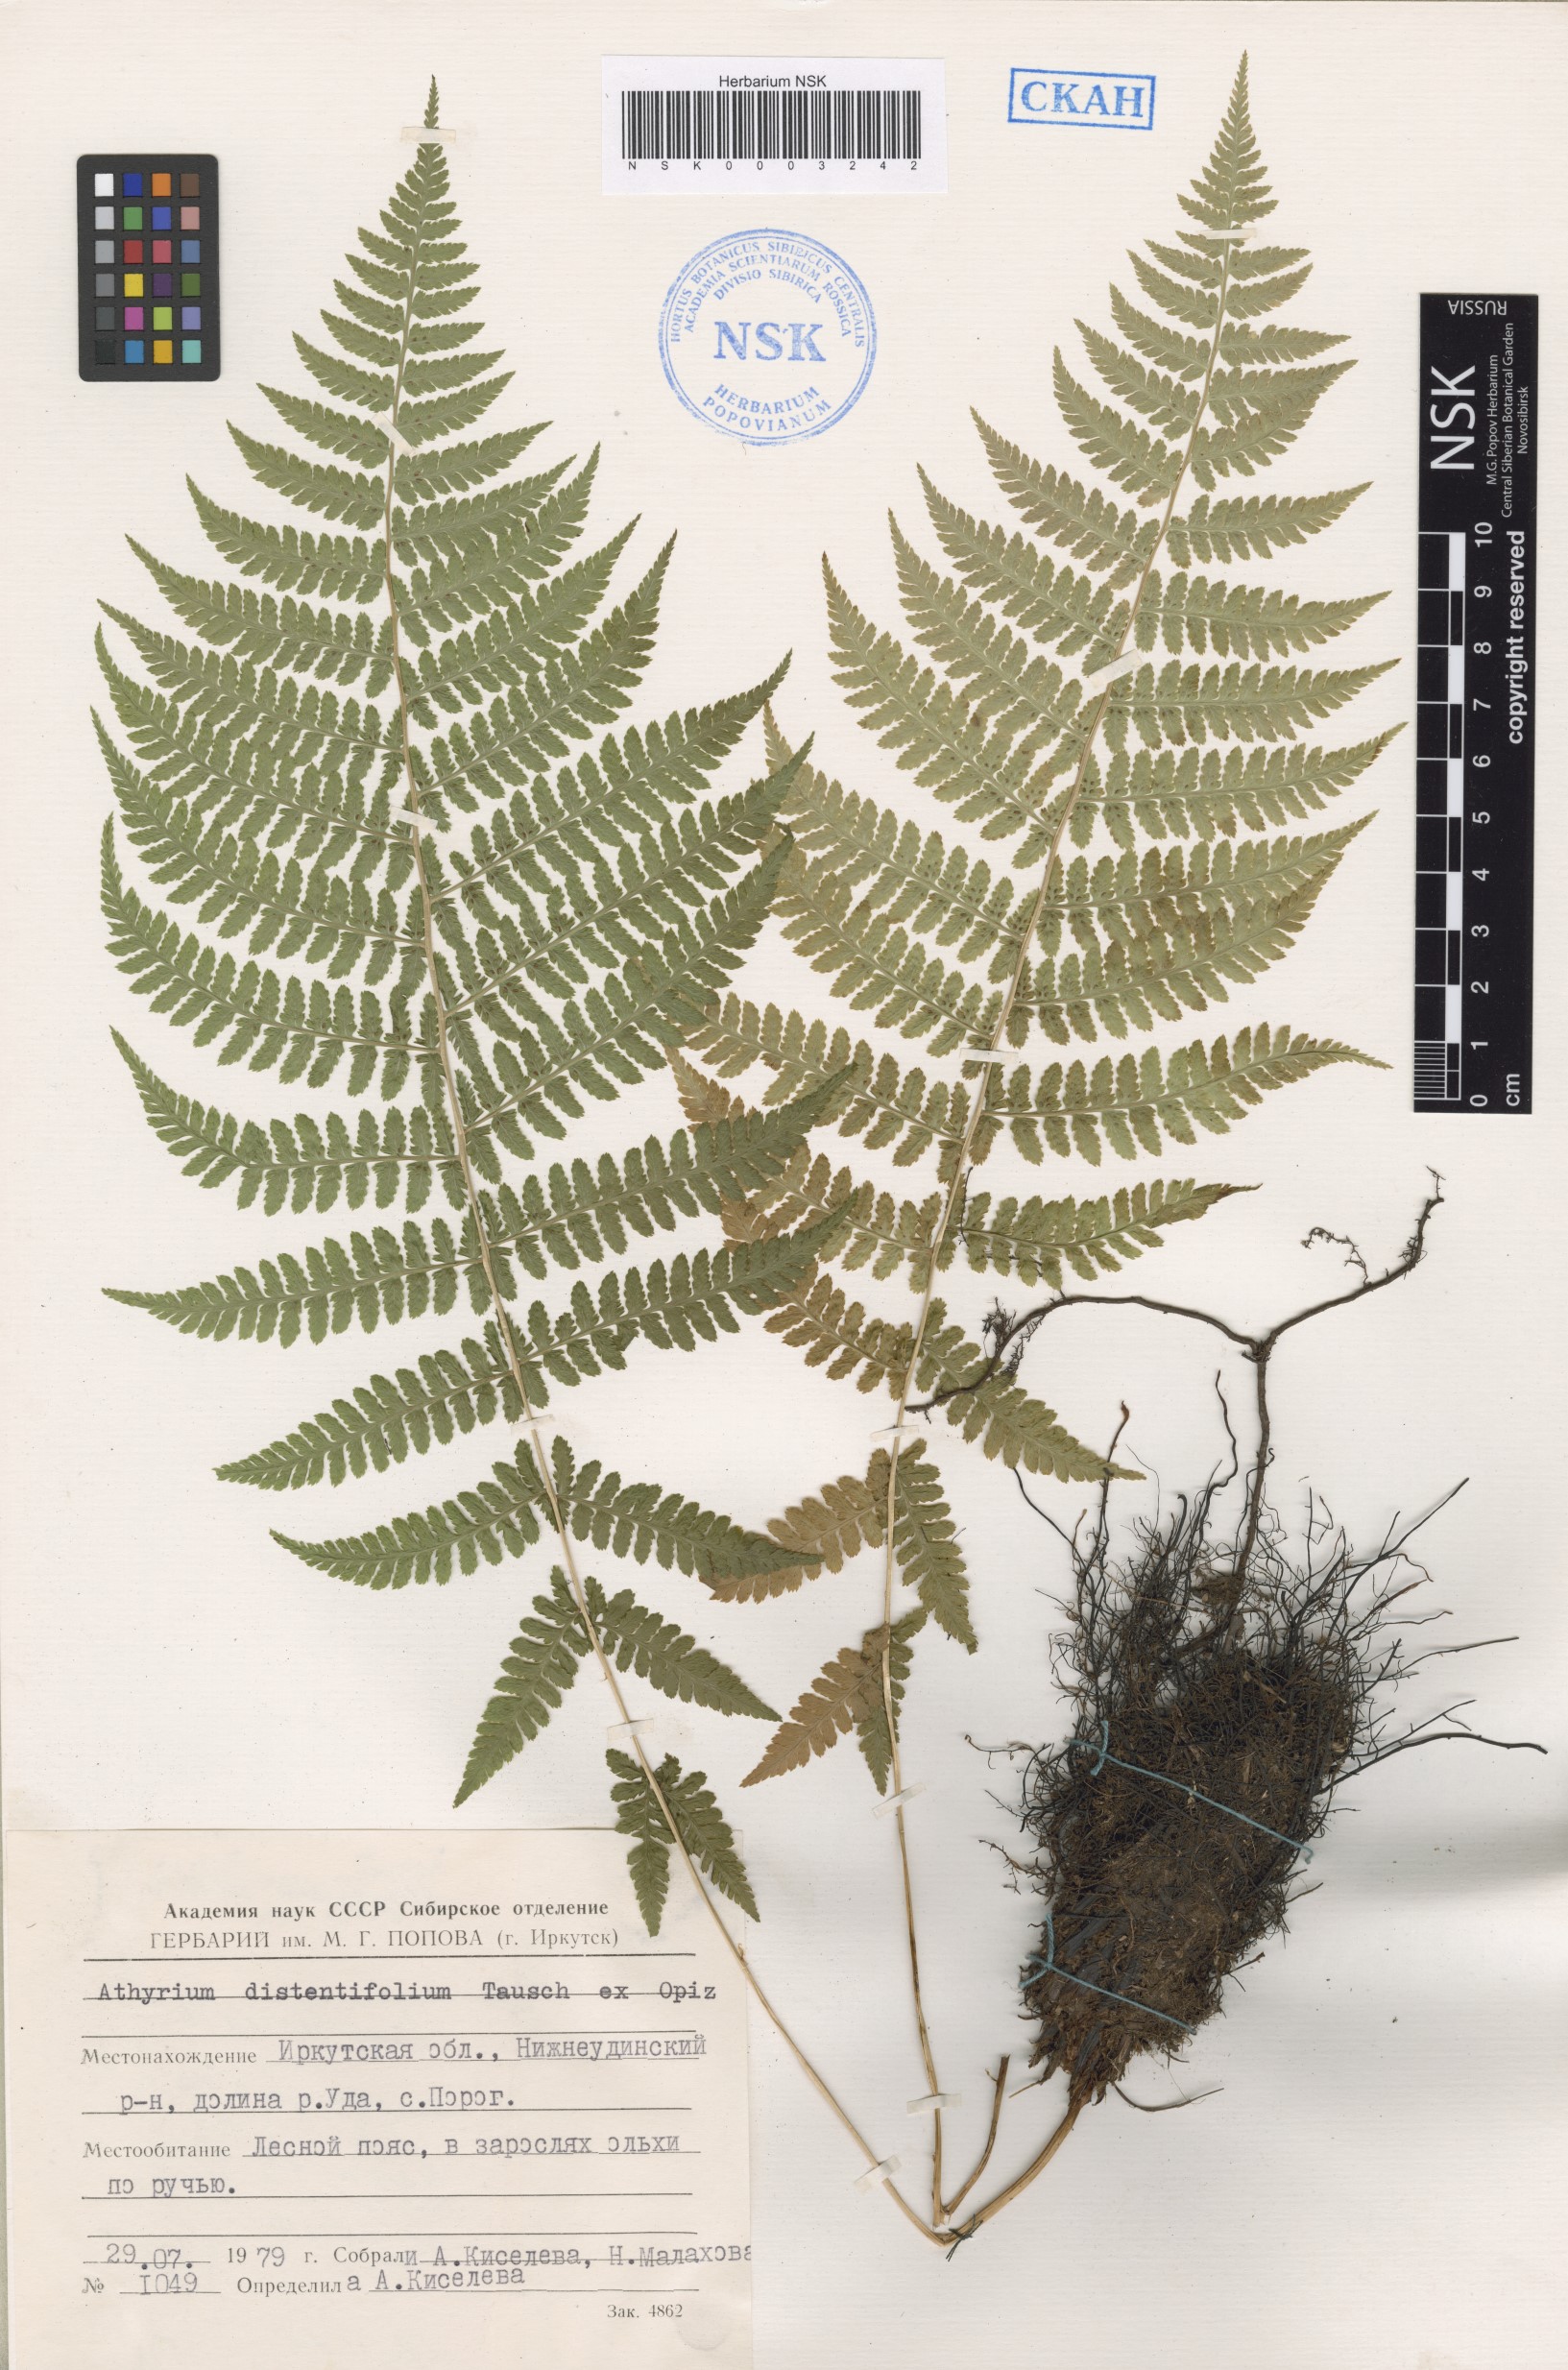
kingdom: Plantae
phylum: Tracheophyta
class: Polypodiopsida
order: Polypodiales
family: Athyriaceae
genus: Pseudathyrium
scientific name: Pseudathyrium alpestre
